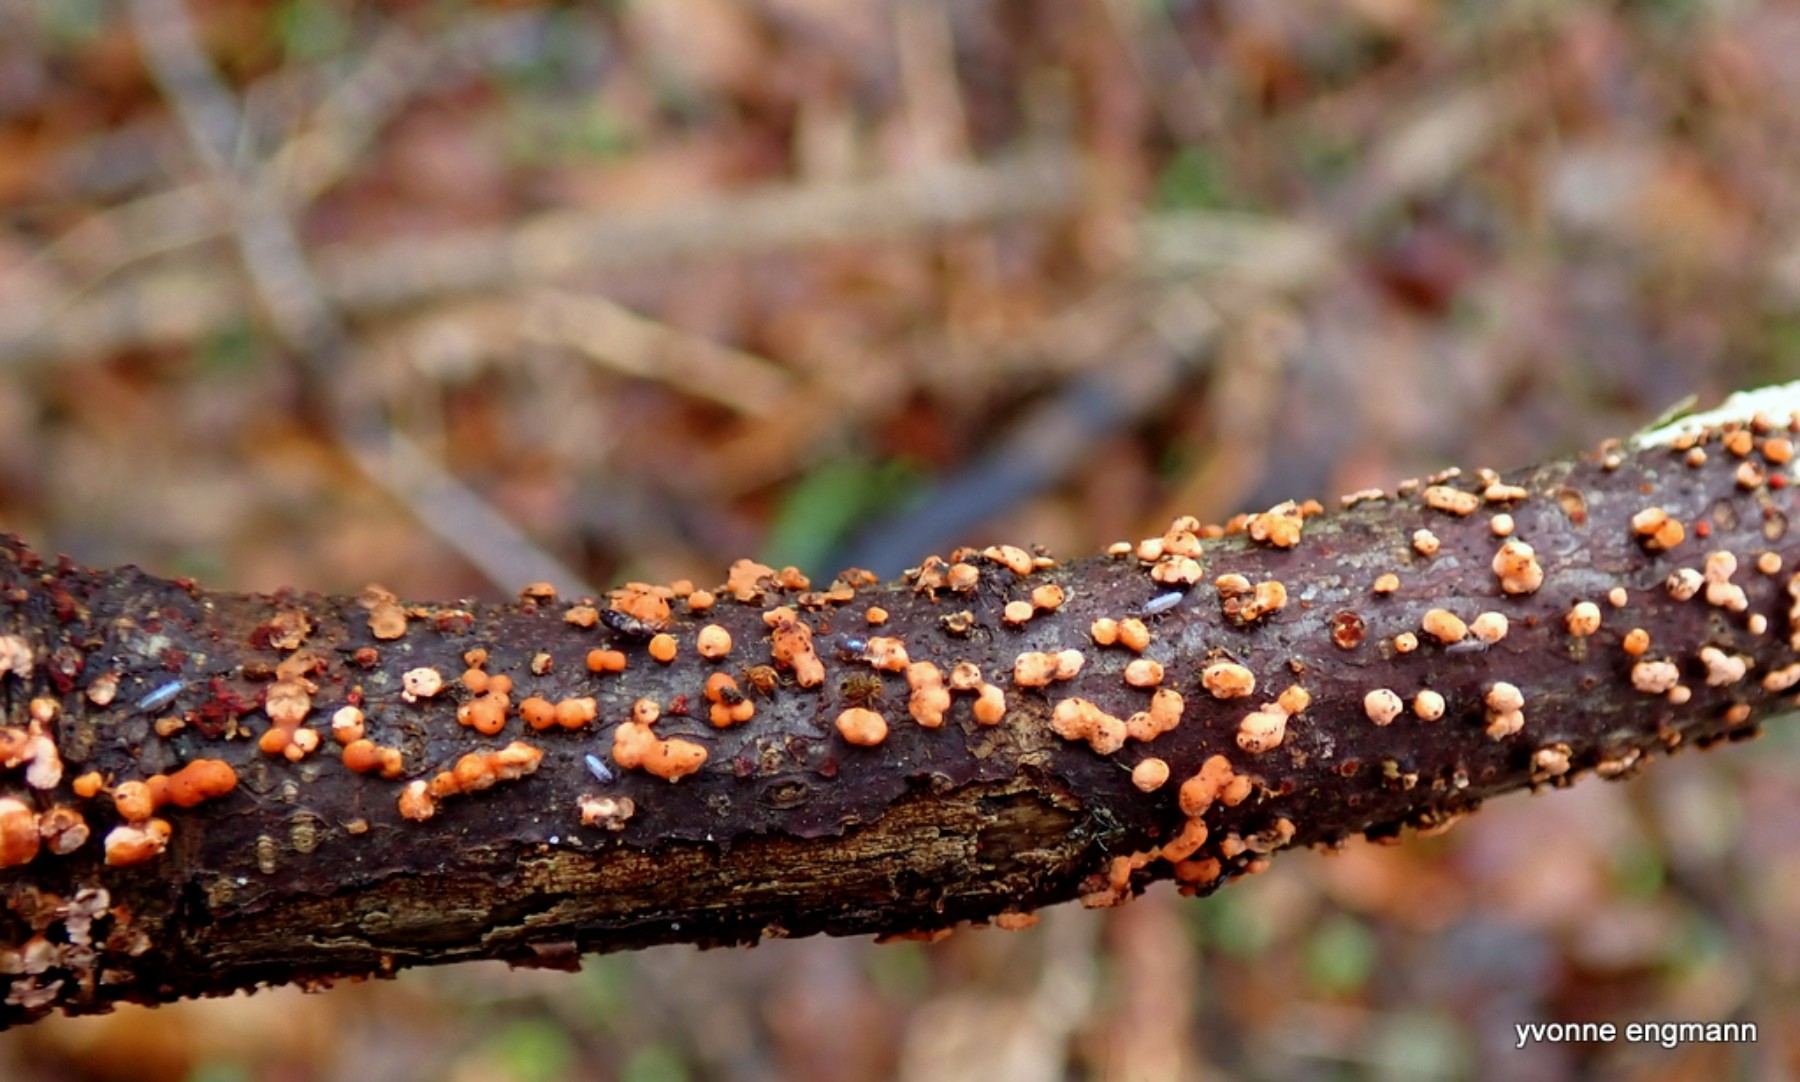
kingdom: Fungi
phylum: Ascomycota
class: Sordariomycetes
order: Hypocreales
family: Nectriaceae
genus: Nectria
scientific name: Nectria cinnabarina
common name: almindelig cinnobersvamp
